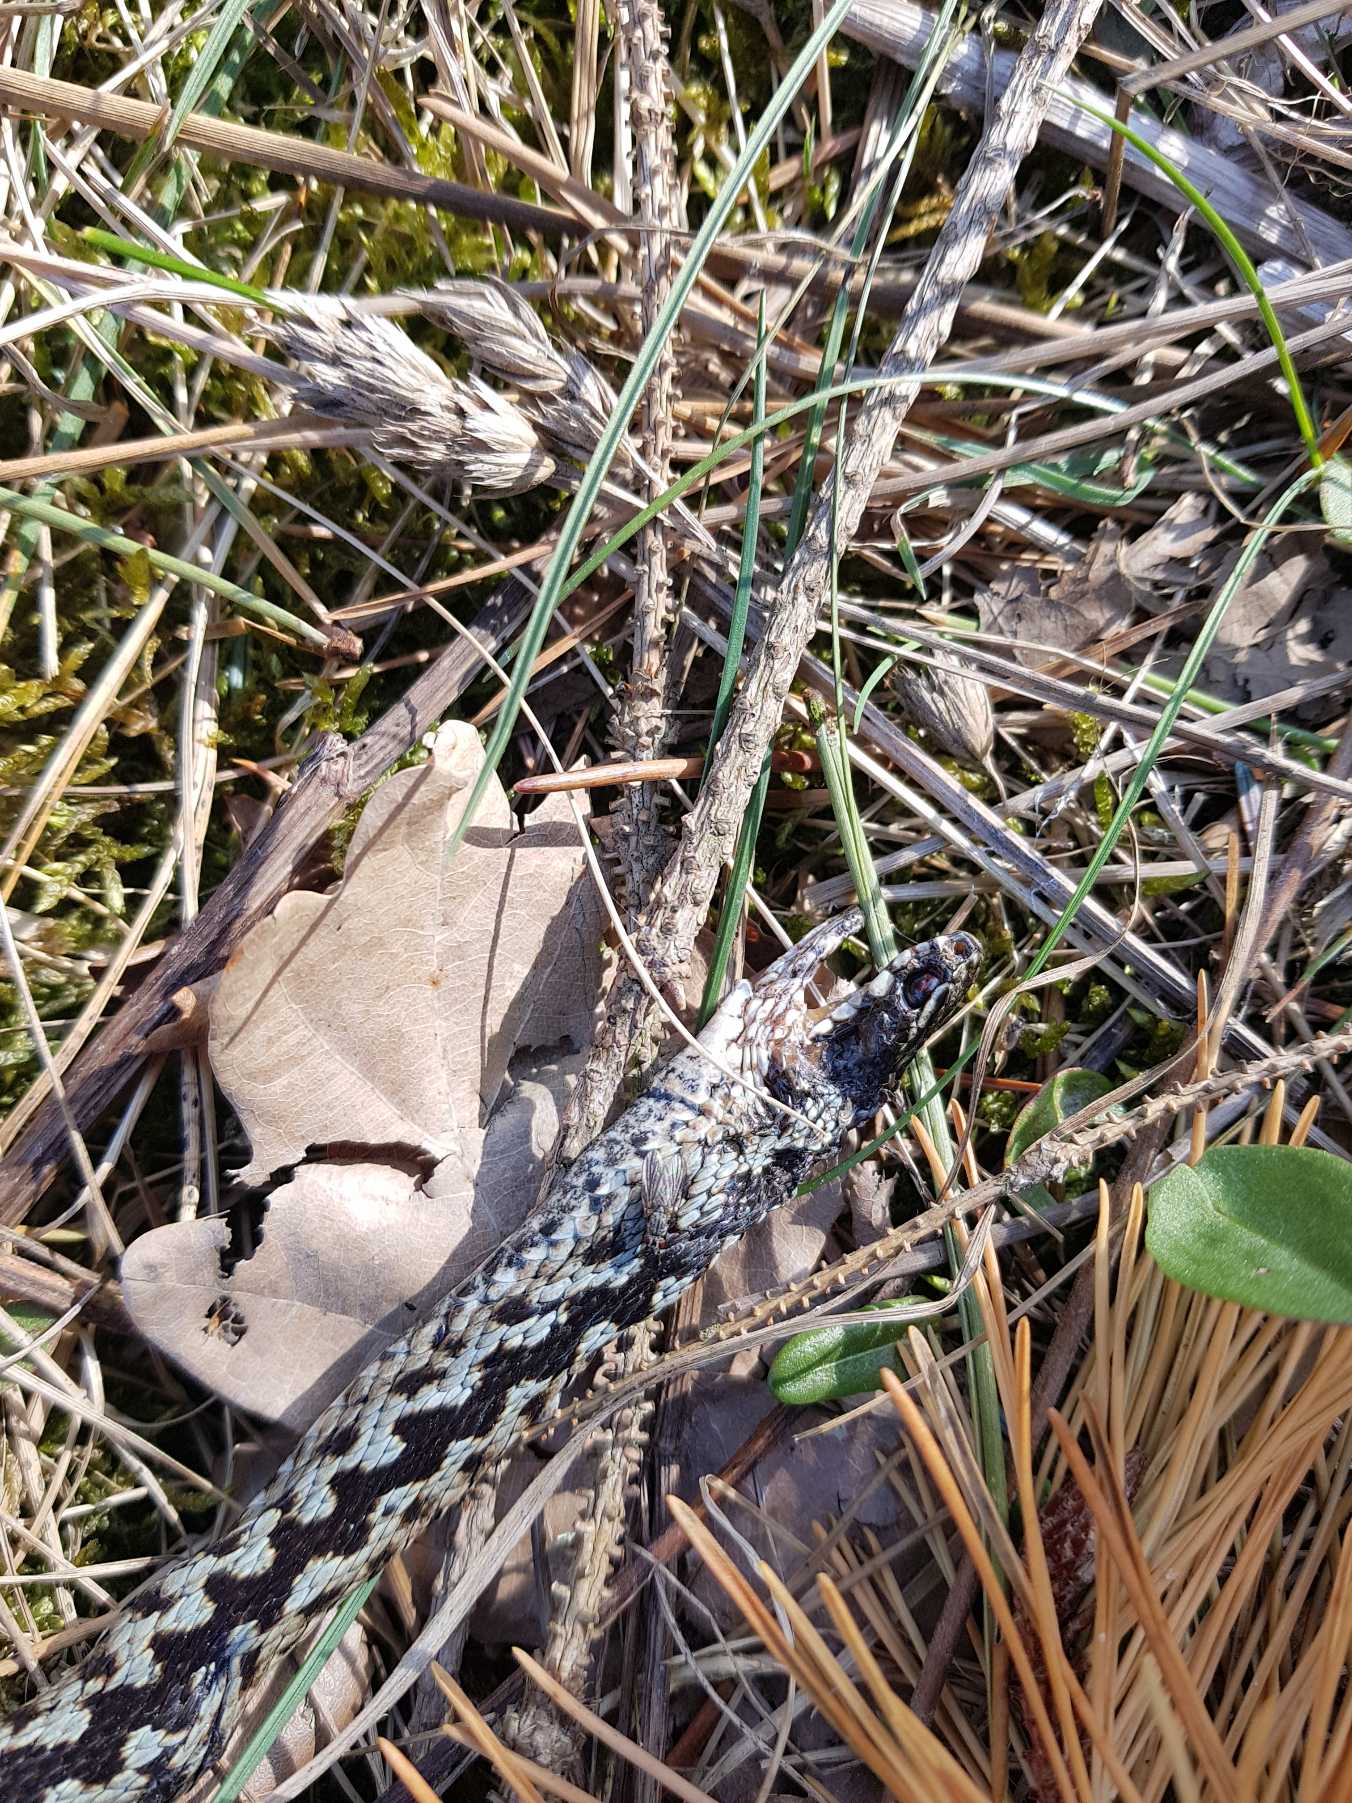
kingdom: Animalia
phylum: Chordata
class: Squamata
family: Viperidae
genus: Vipera
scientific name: Vipera berus
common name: Hugorm
